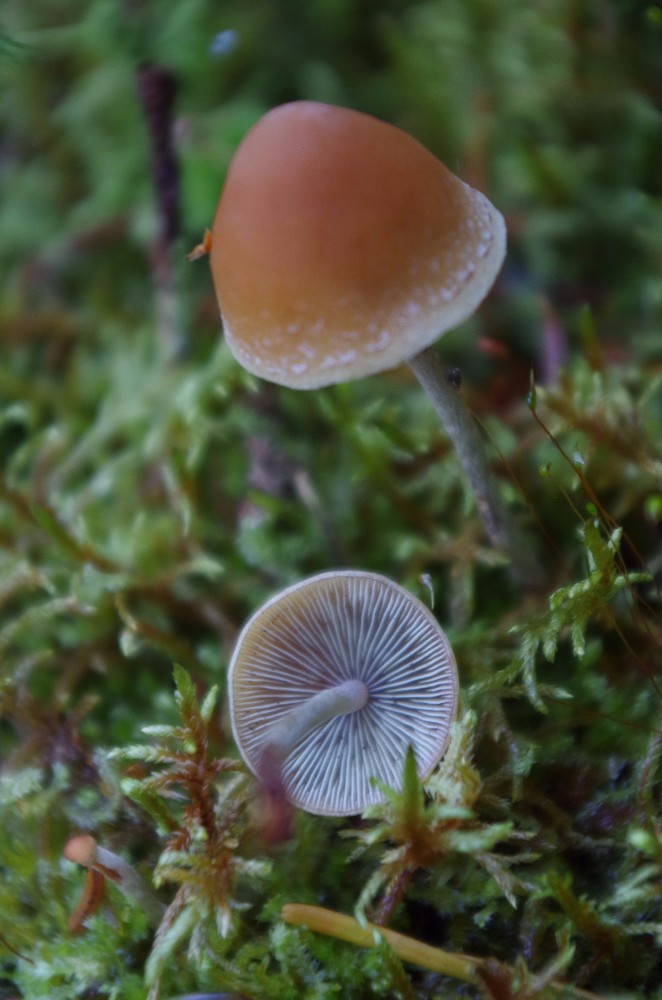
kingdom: Fungi
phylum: Basidiomycota
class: Agaricomycetes
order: Agaricales
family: Strophariaceae
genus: Hypholoma
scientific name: Hypholoma marginatum
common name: enlig svovlhat
